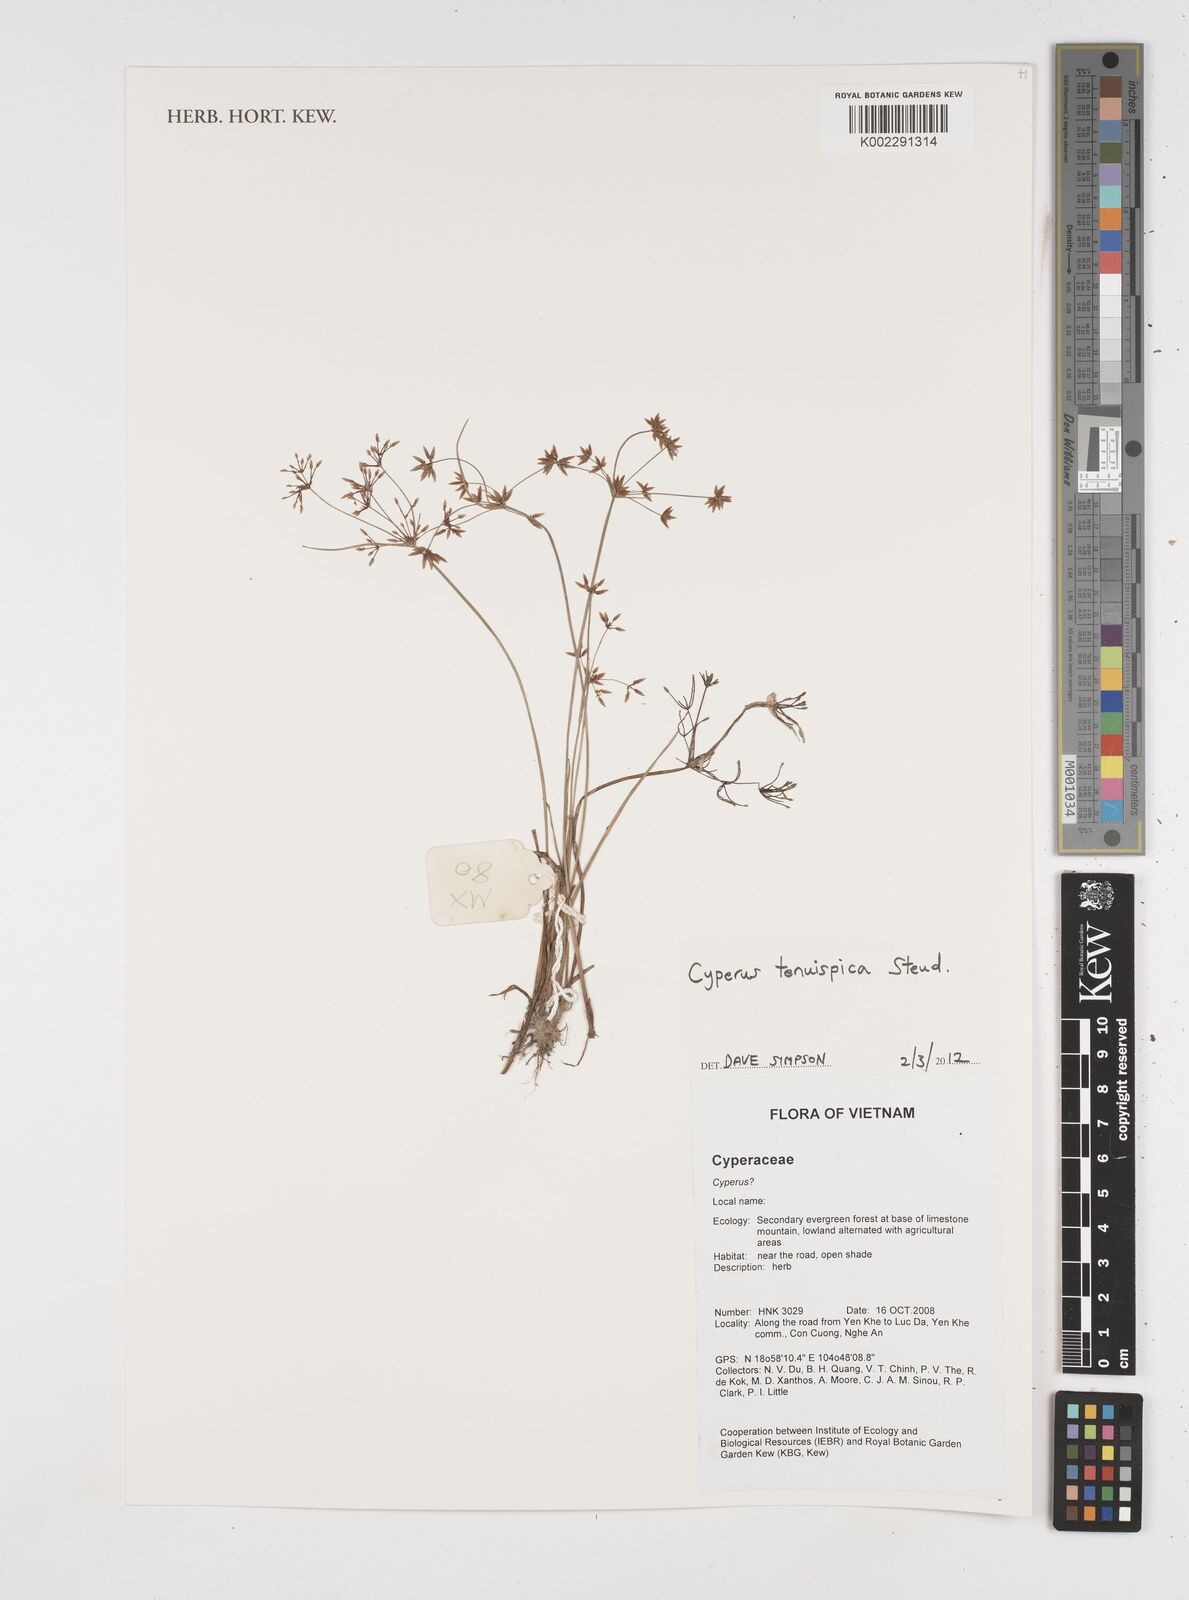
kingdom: Plantae
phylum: Tracheophyta
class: Liliopsida
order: Poales
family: Cyperaceae
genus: Cyperus
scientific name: Cyperus tenuispica
